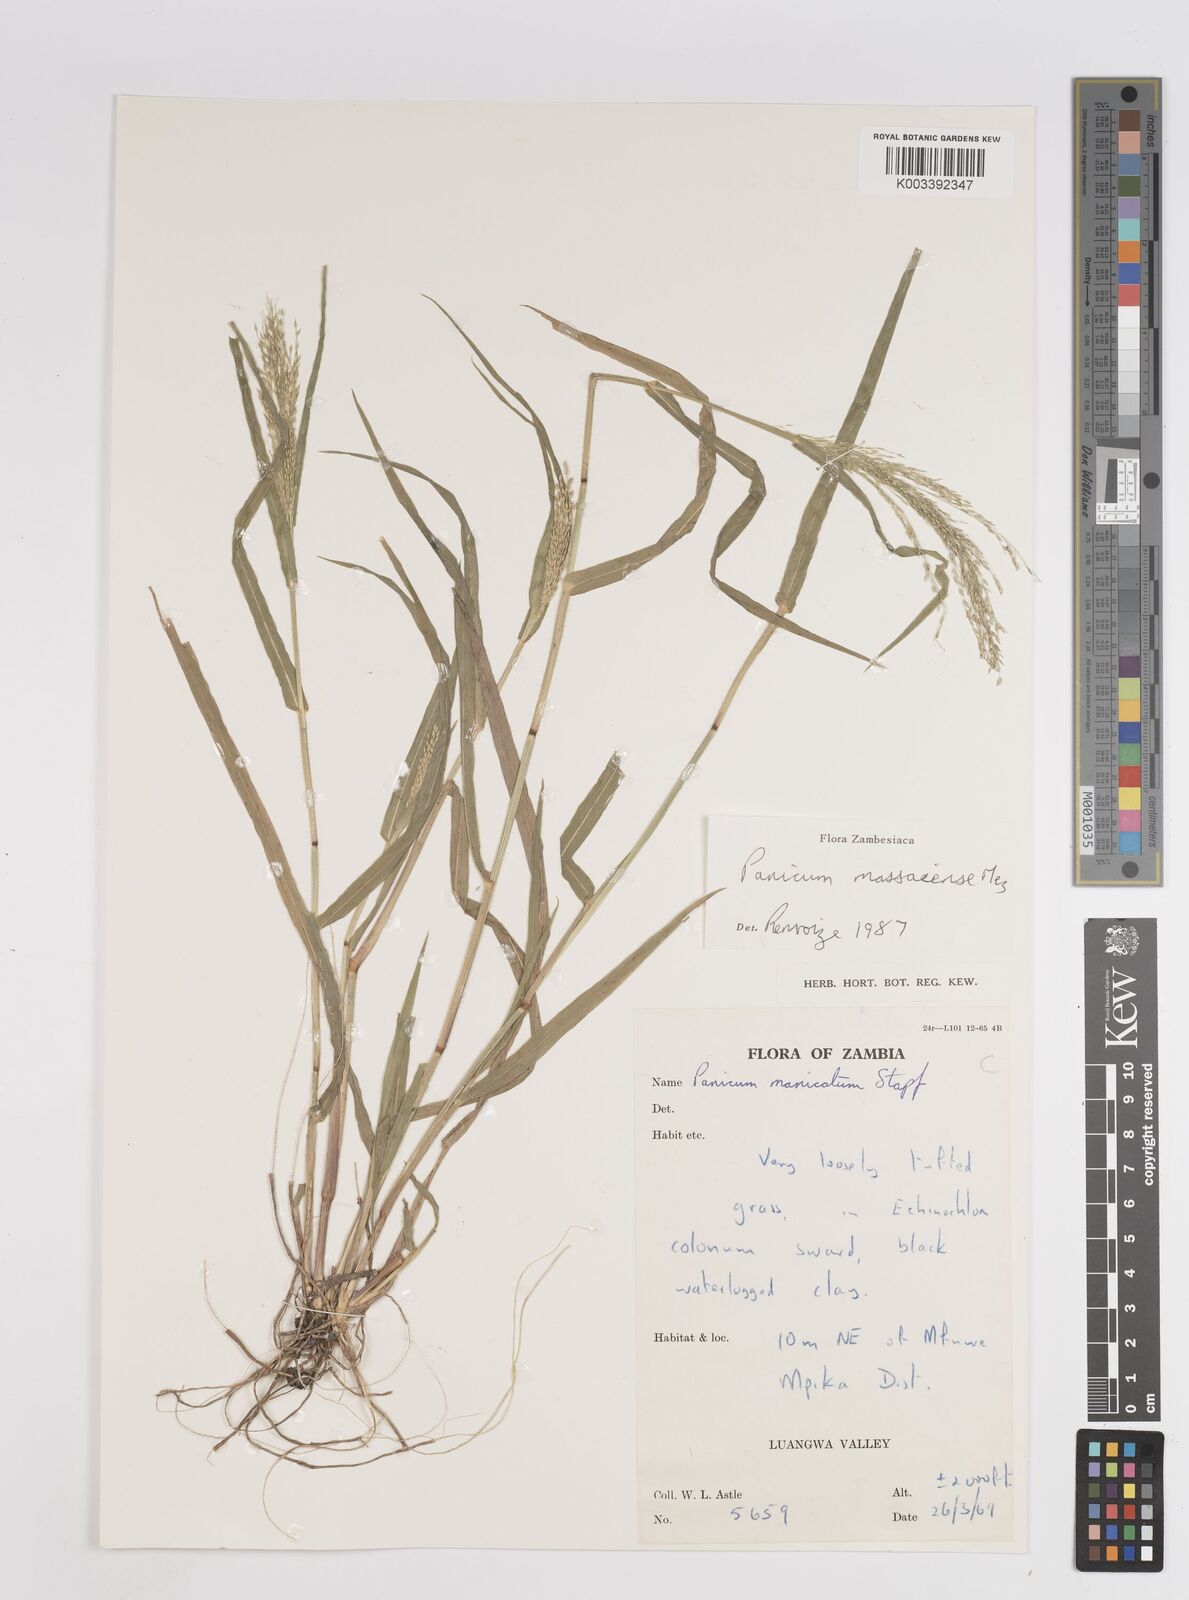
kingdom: Plantae
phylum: Tracheophyta
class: Liliopsida
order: Poales
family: Poaceae
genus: Panicum
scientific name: Panicum massaiense
